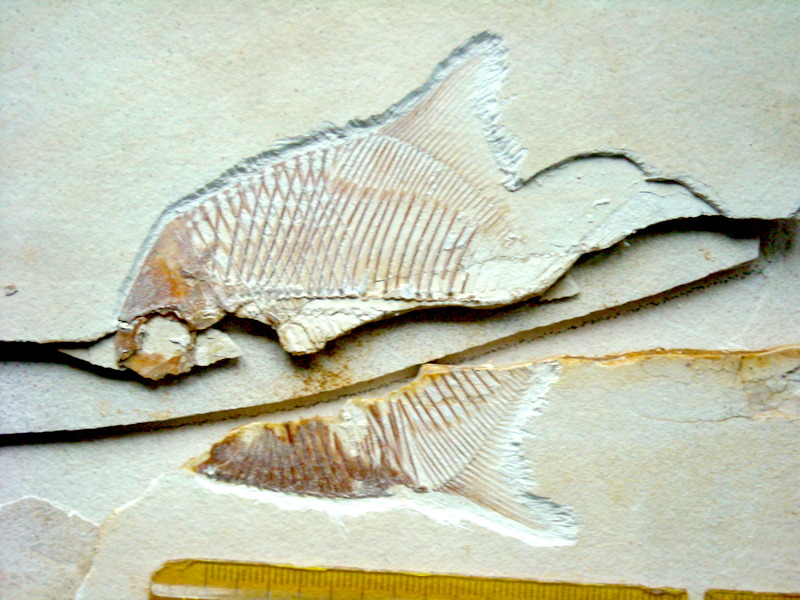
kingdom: Animalia
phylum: Chordata
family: Pycnodontidae
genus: Turboscinetes
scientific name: Turboscinetes egertoni
